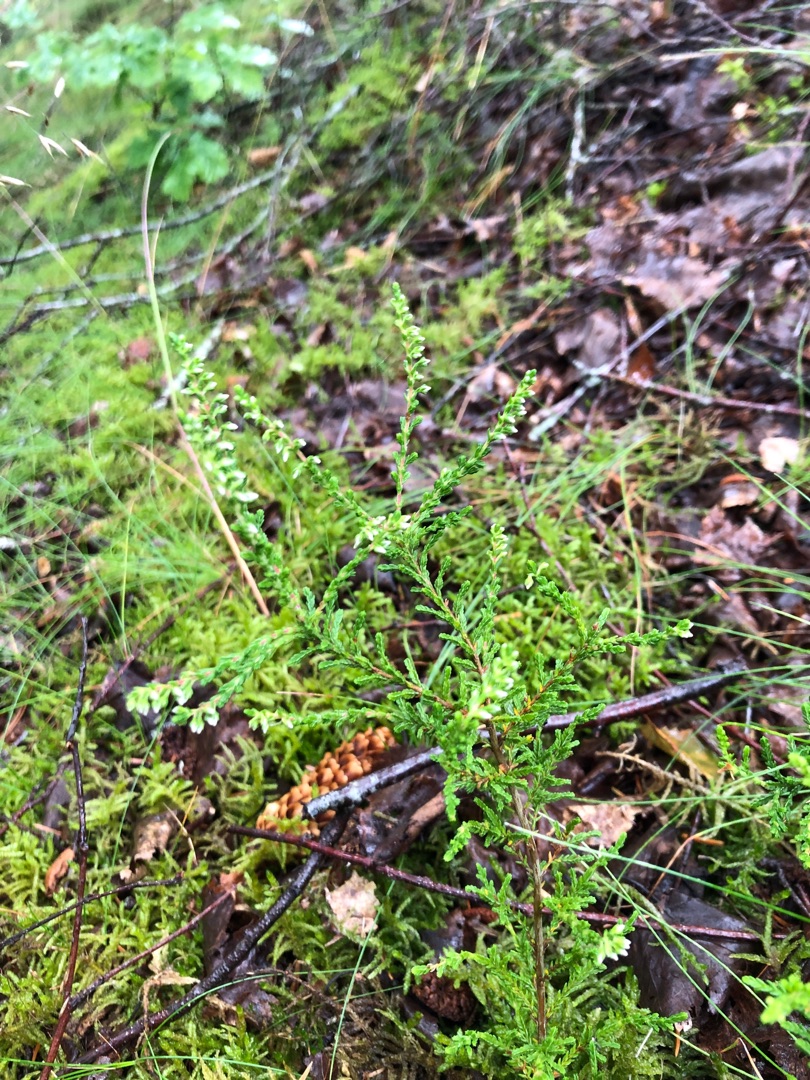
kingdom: Plantae
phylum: Tracheophyta
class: Magnoliopsida
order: Ericales
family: Ericaceae
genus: Calluna
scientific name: Calluna vulgaris
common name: Hedelyng
